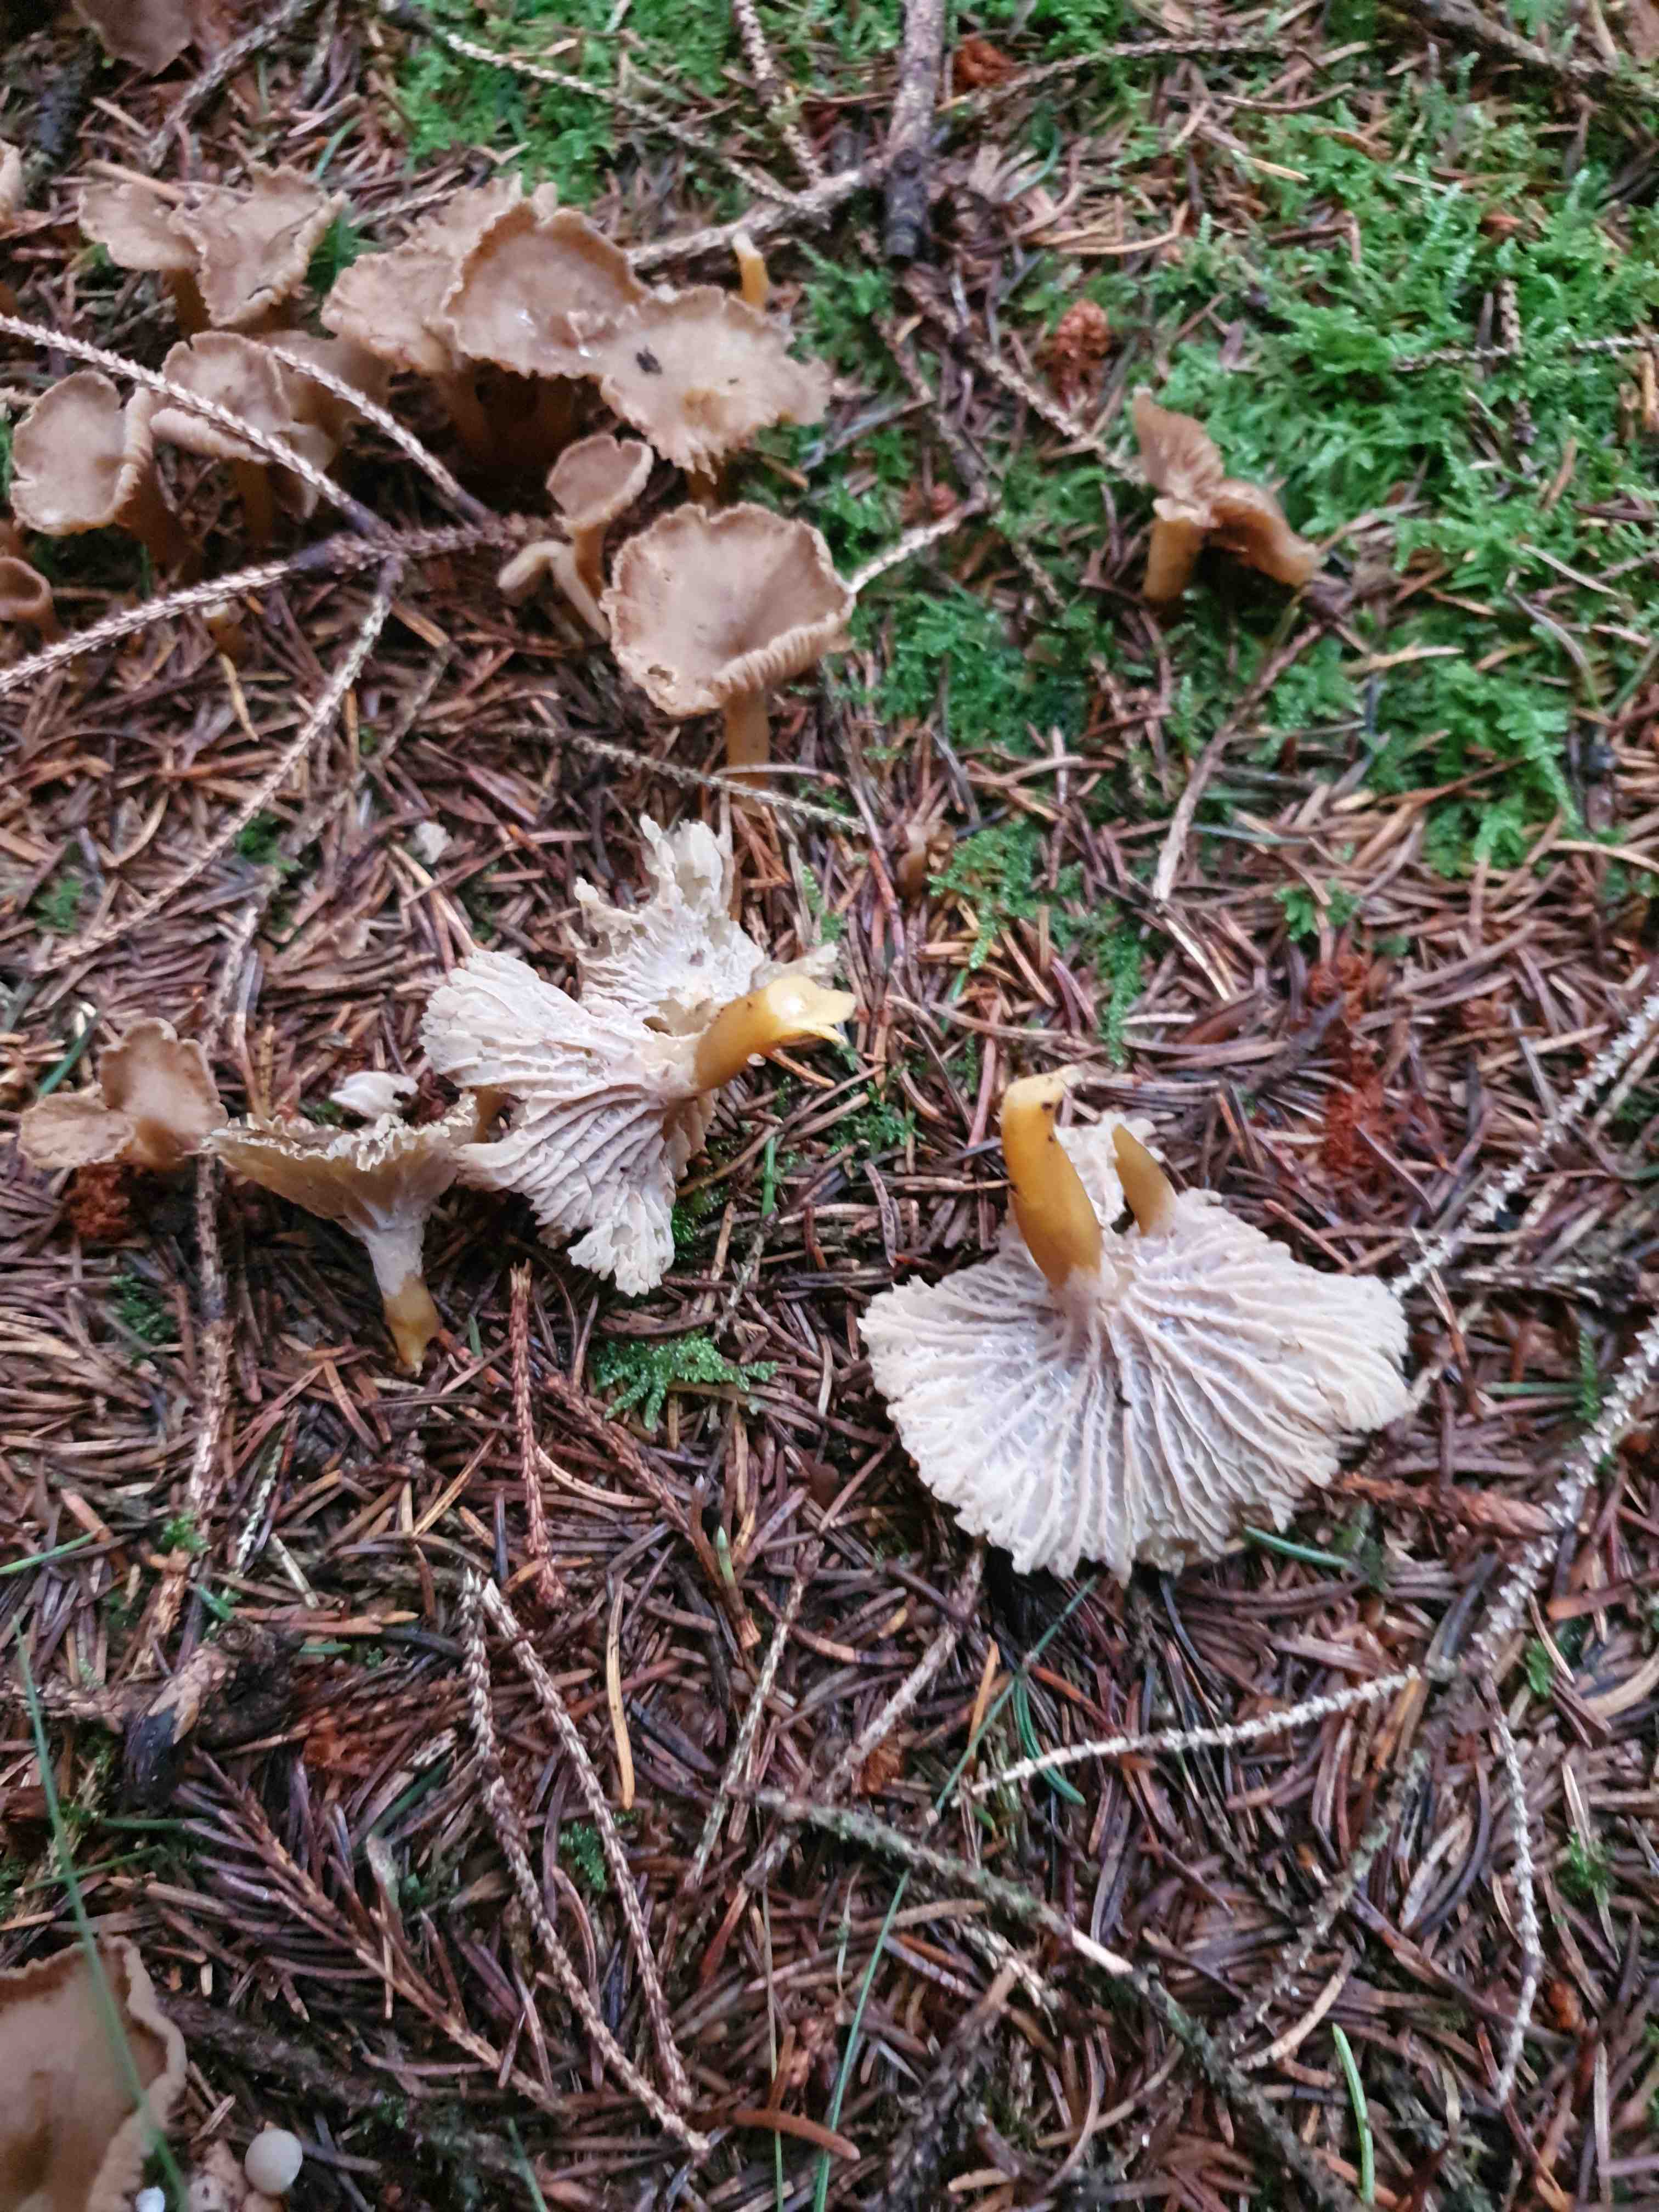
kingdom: Fungi
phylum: Basidiomycota
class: Agaricomycetes
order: Cantharellales
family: Hydnaceae
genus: Craterellus
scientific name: Craterellus tubaeformis
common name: tragt-kantarel
